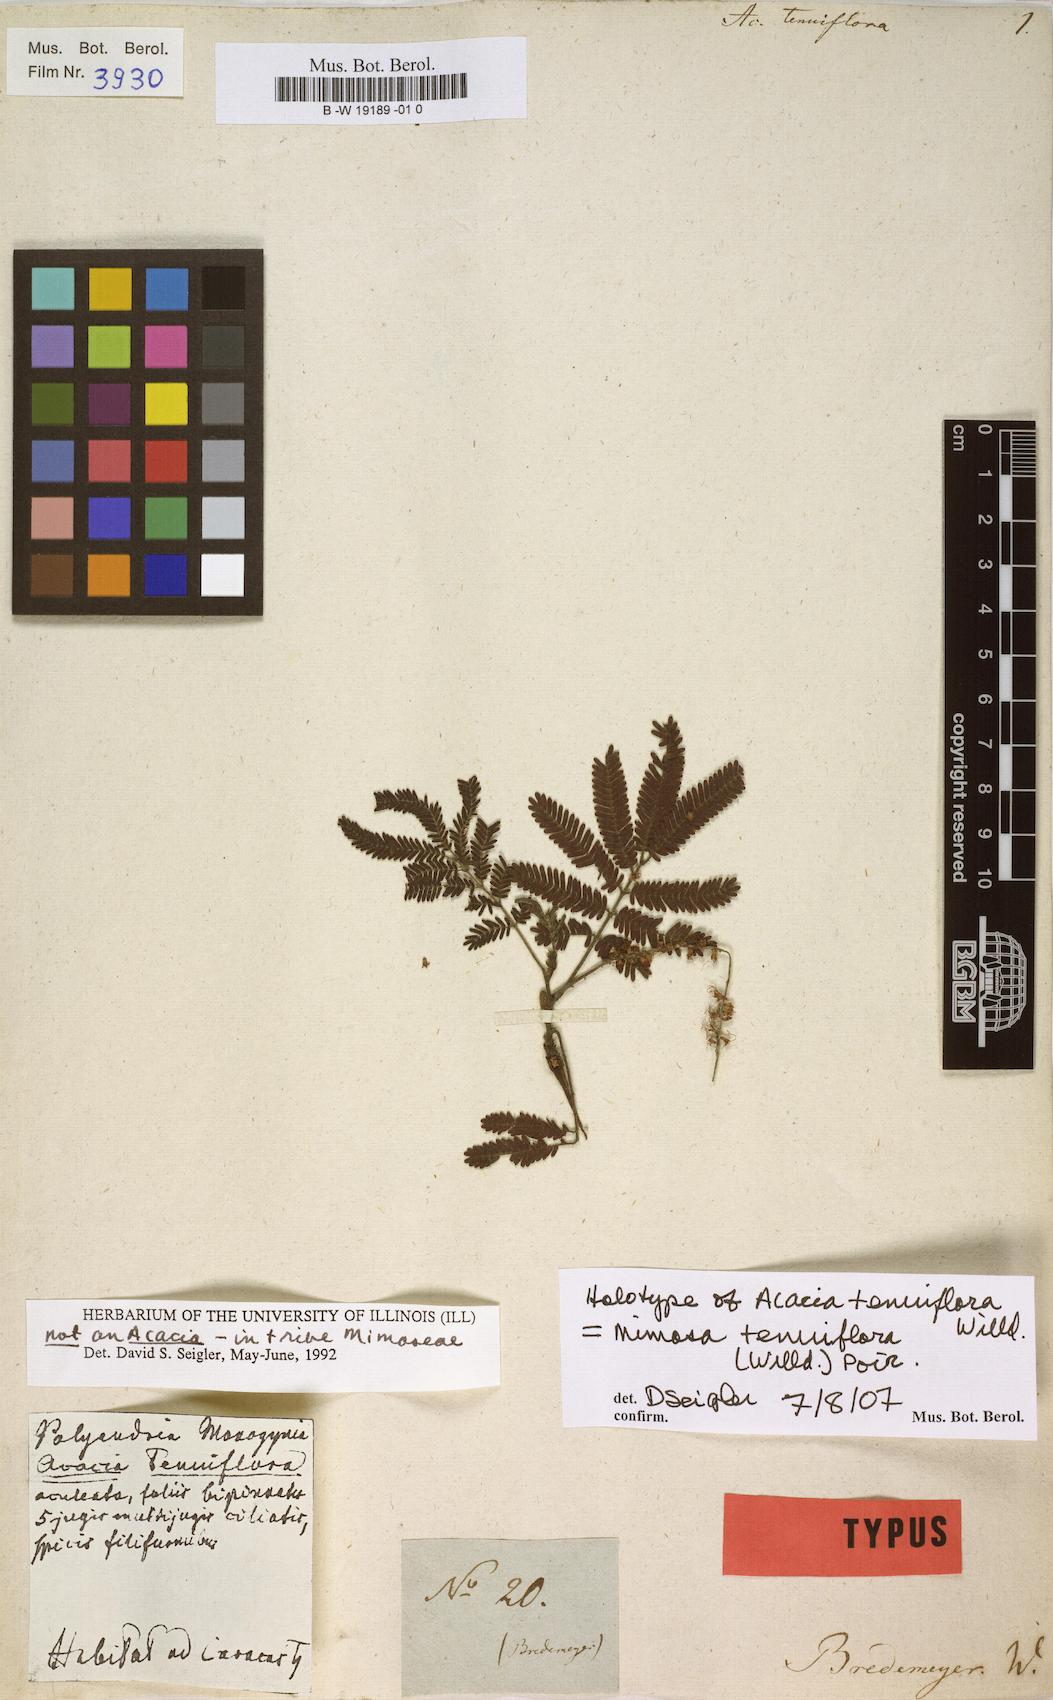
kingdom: Plantae
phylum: Tracheophyta
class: Magnoliopsida
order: Fabales
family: Fabaceae
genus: Mimosa
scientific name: Mimosa tenuiflora
